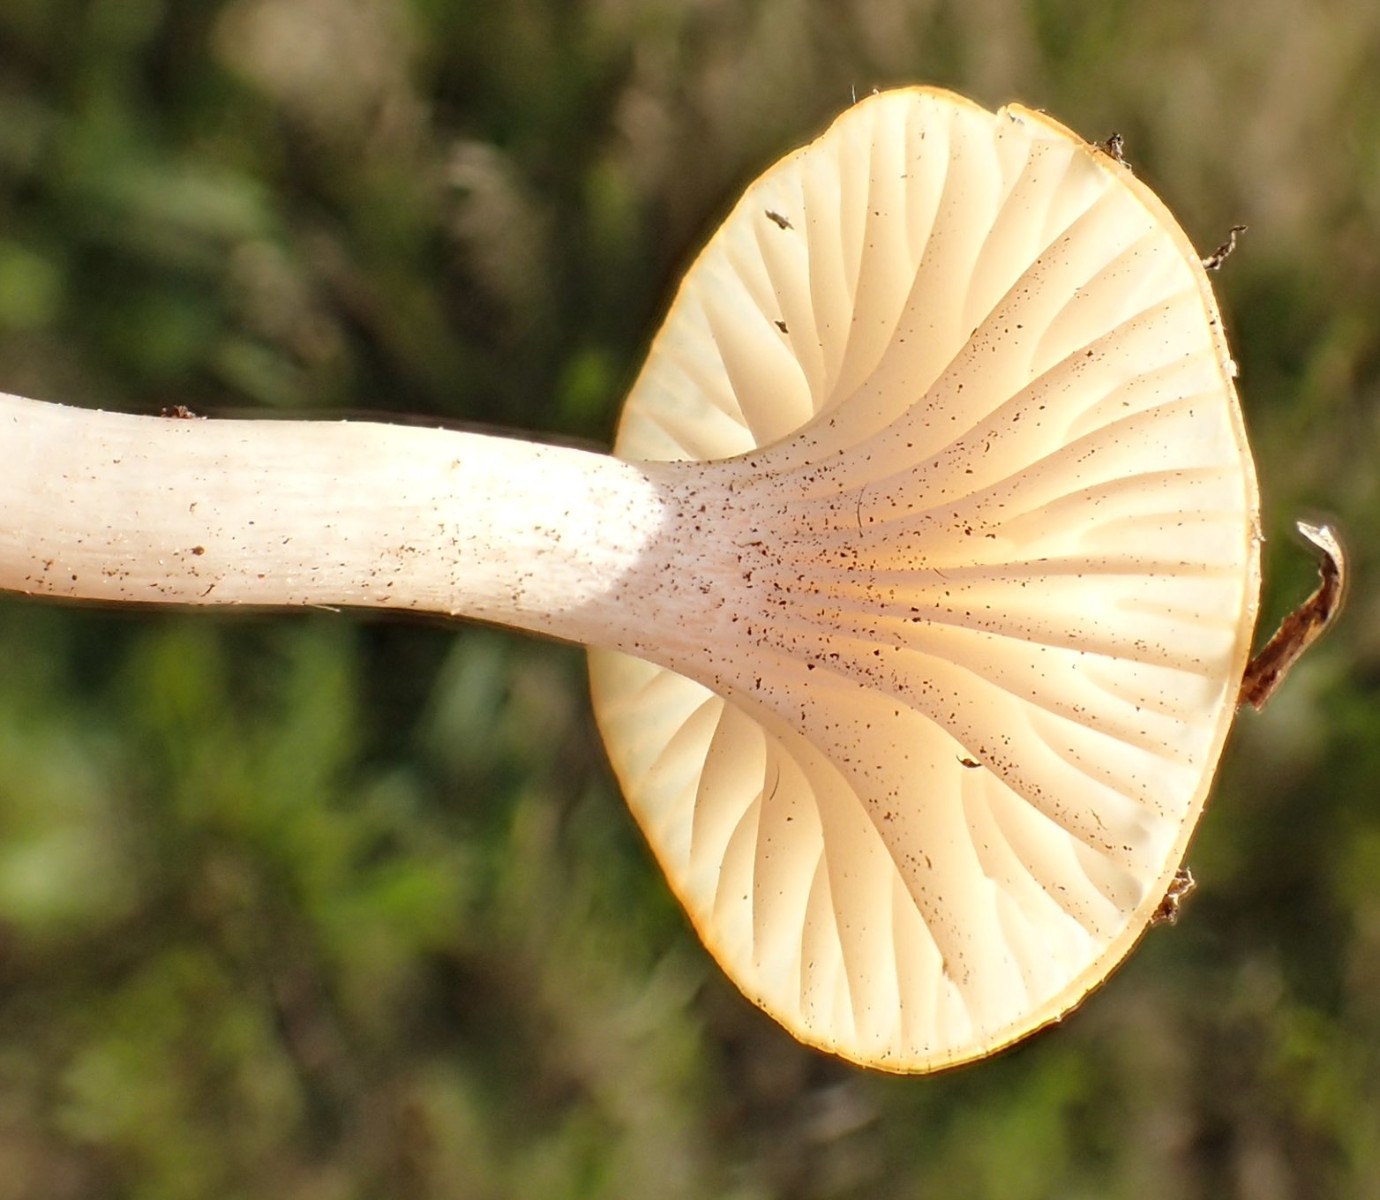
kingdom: Fungi
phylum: Basidiomycota
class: Agaricomycetes
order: Agaricales
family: Hygrophoraceae
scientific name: Hygrophoraceae
